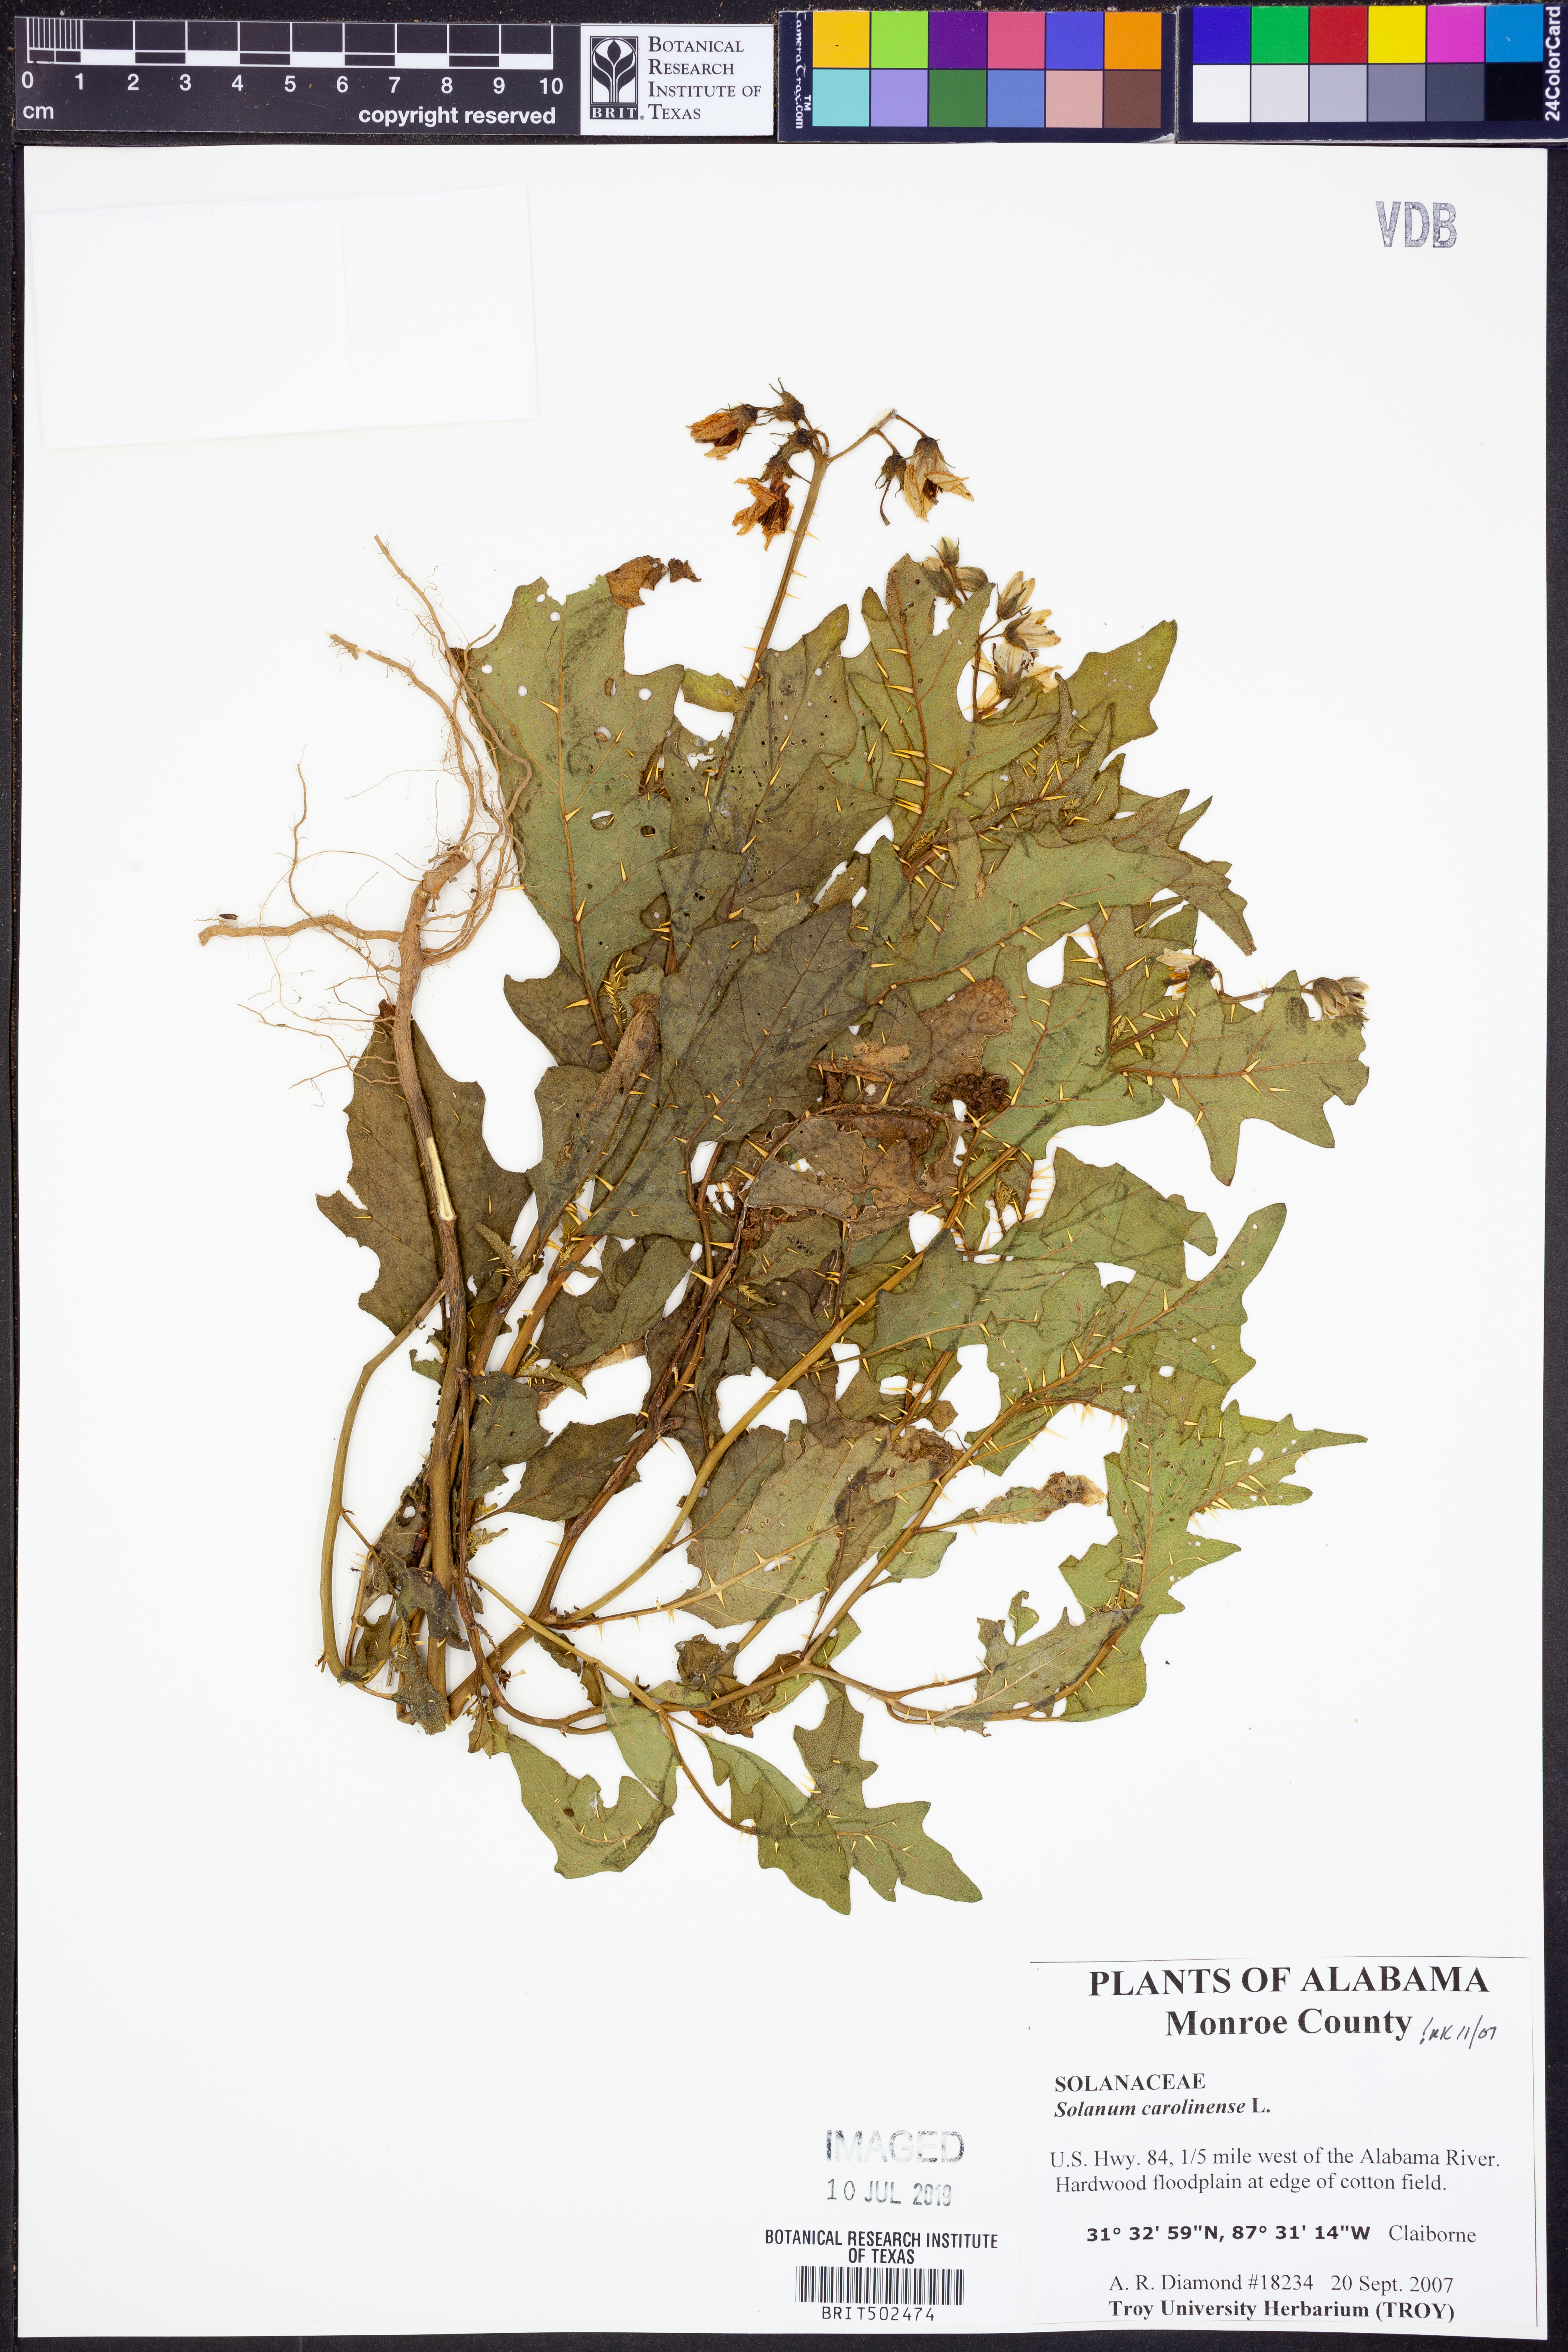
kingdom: Plantae
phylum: Tracheophyta
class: Magnoliopsida
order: Solanales
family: Solanaceae
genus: Solanum
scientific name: Solanum carolinense
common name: Horse-nettle
